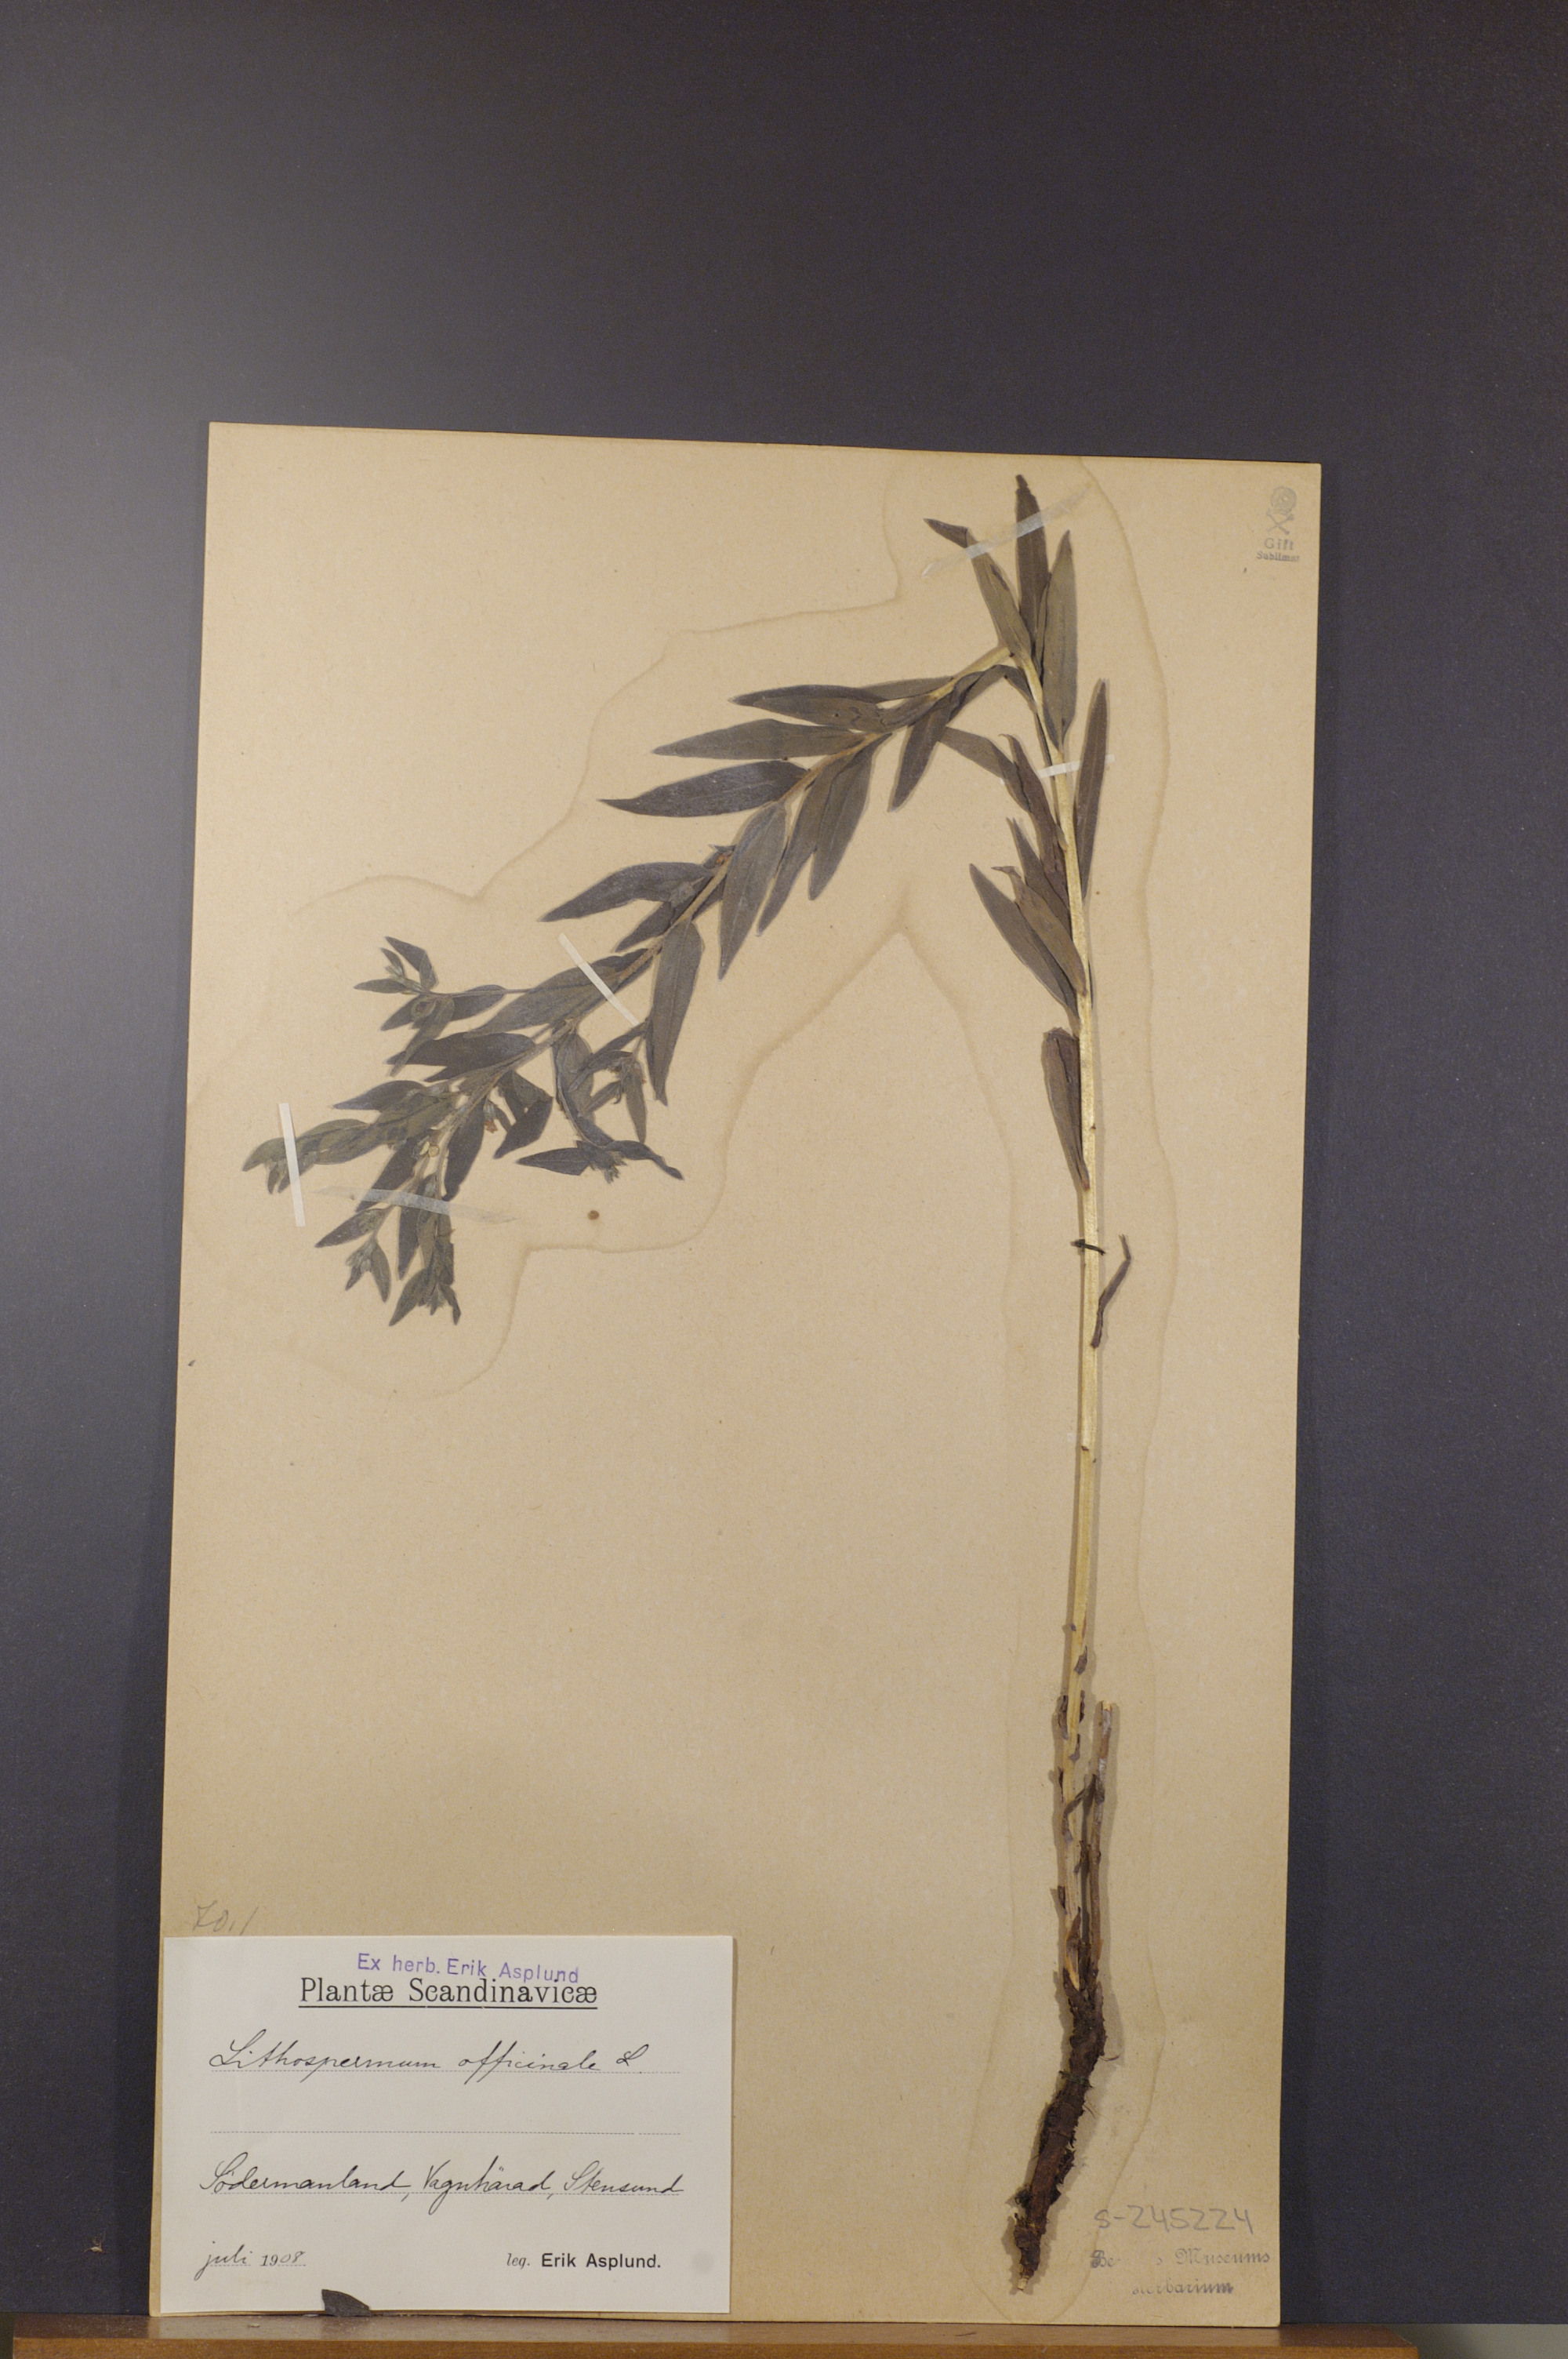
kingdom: Plantae
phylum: Tracheophyta
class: Magnoliopsida
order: Boraginales
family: Boraginaceae
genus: Lithospermum
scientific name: Lithospermum officinale
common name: Common gromwell
